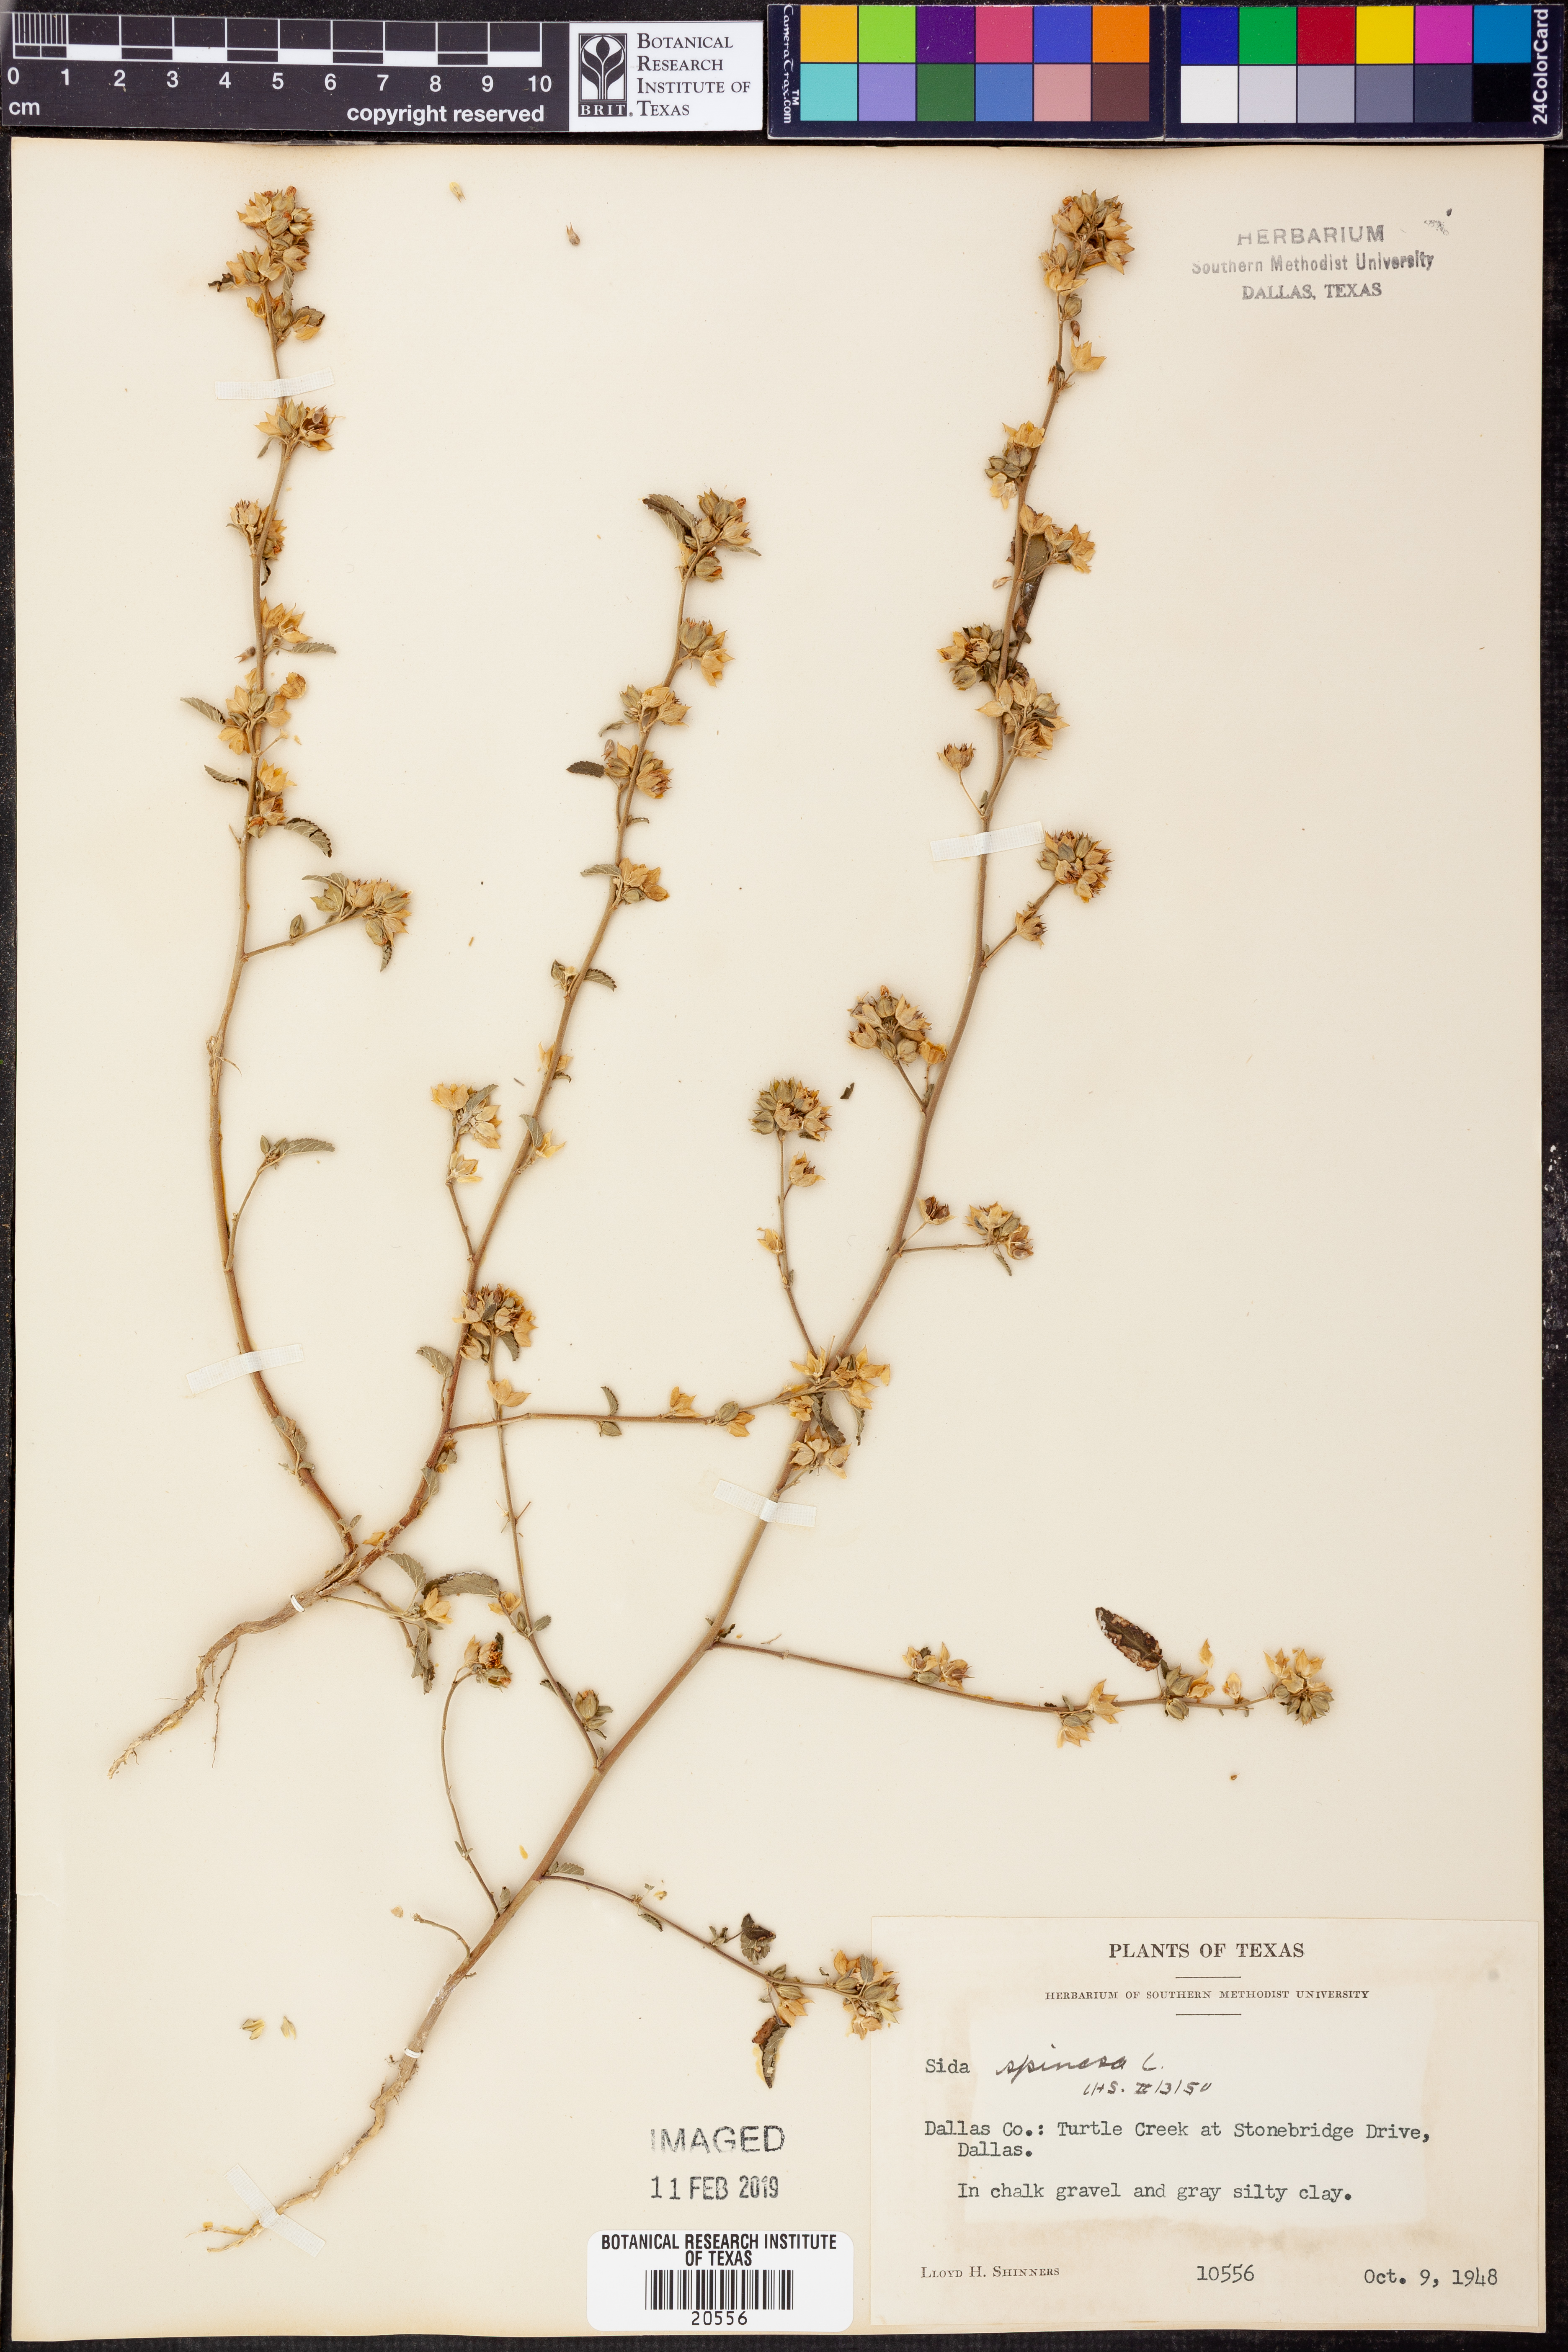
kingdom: Plantae
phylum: Tracheophyta
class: Magnoliopsida
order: Malvales
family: Malvaceae
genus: Sida
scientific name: Sida spinosa
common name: Prickly fanpetals
